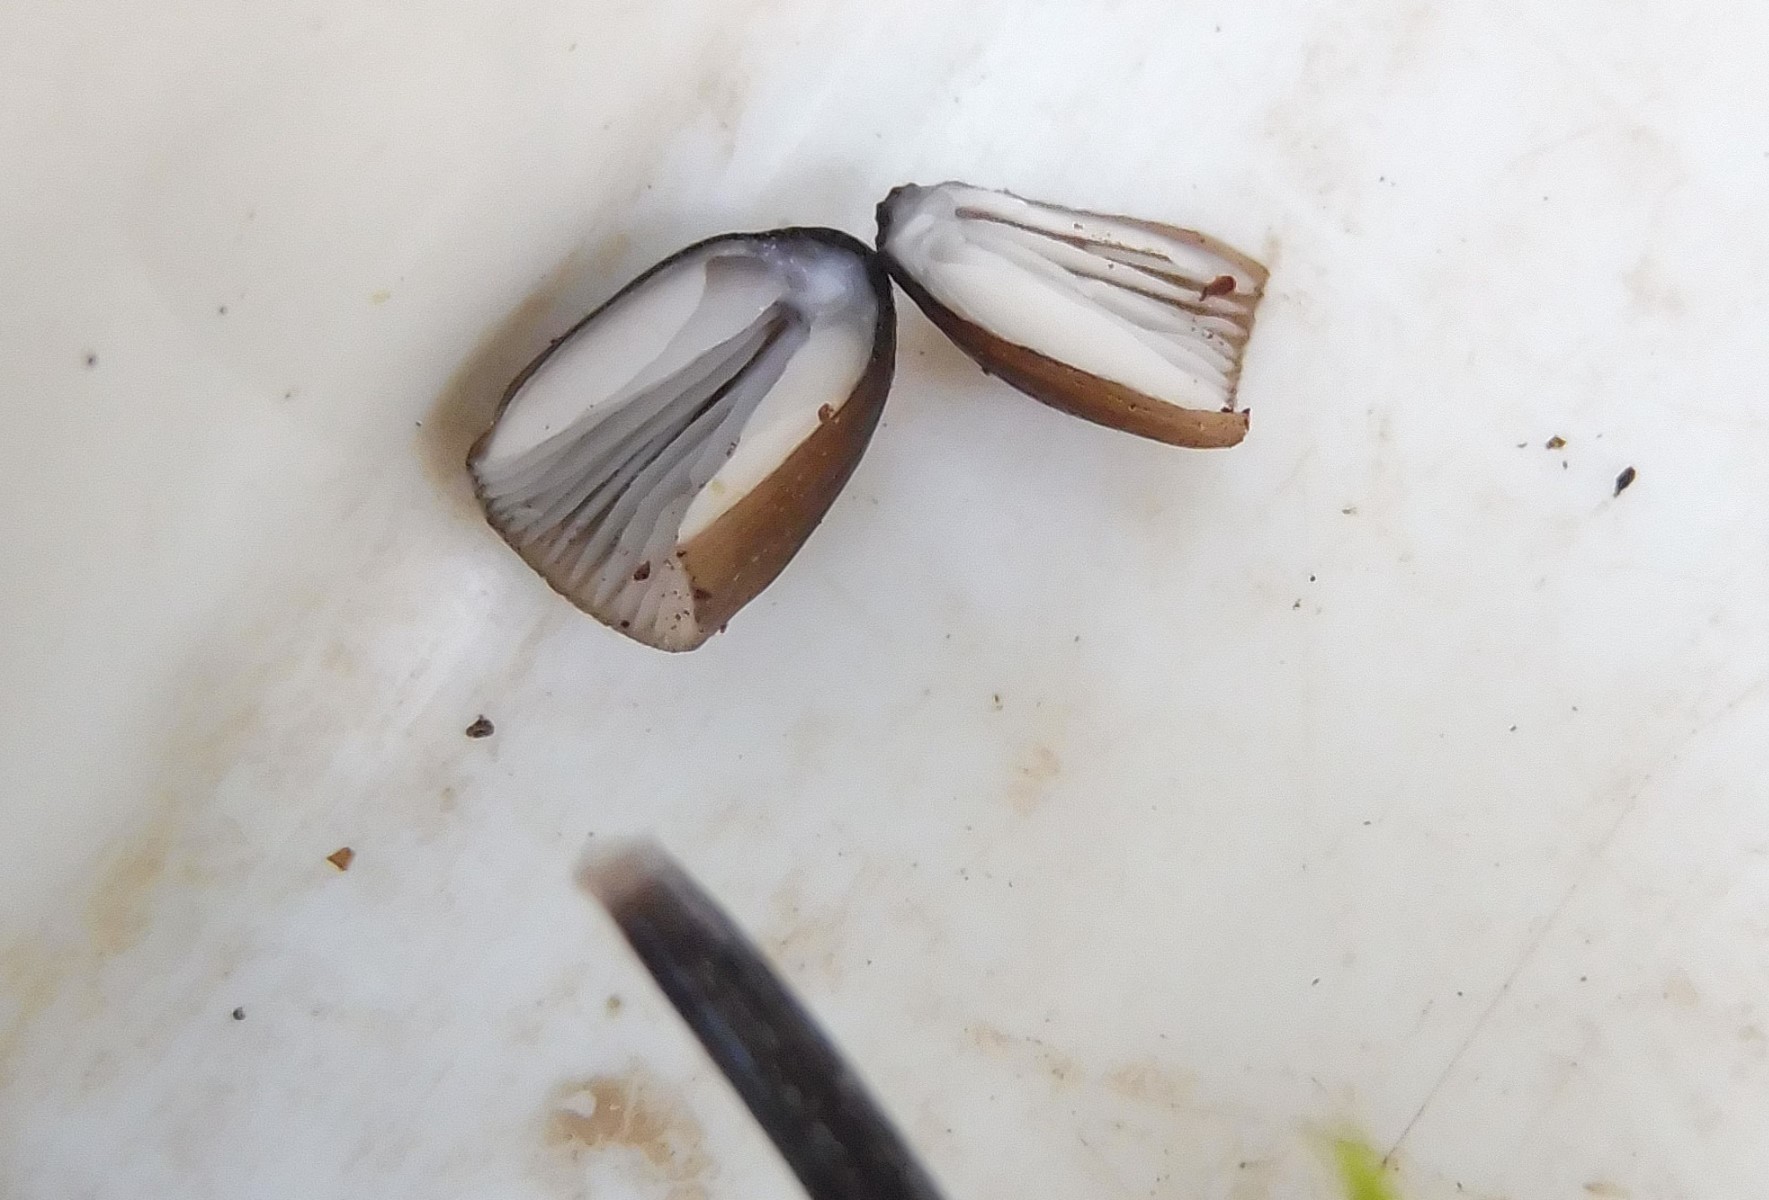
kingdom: Fungi
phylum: Basidiomycota
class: Agaricomycetes
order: Agaricales
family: Mycenaceae
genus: Mycena
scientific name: Mycena galopus
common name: hvidmælket huesvamp
